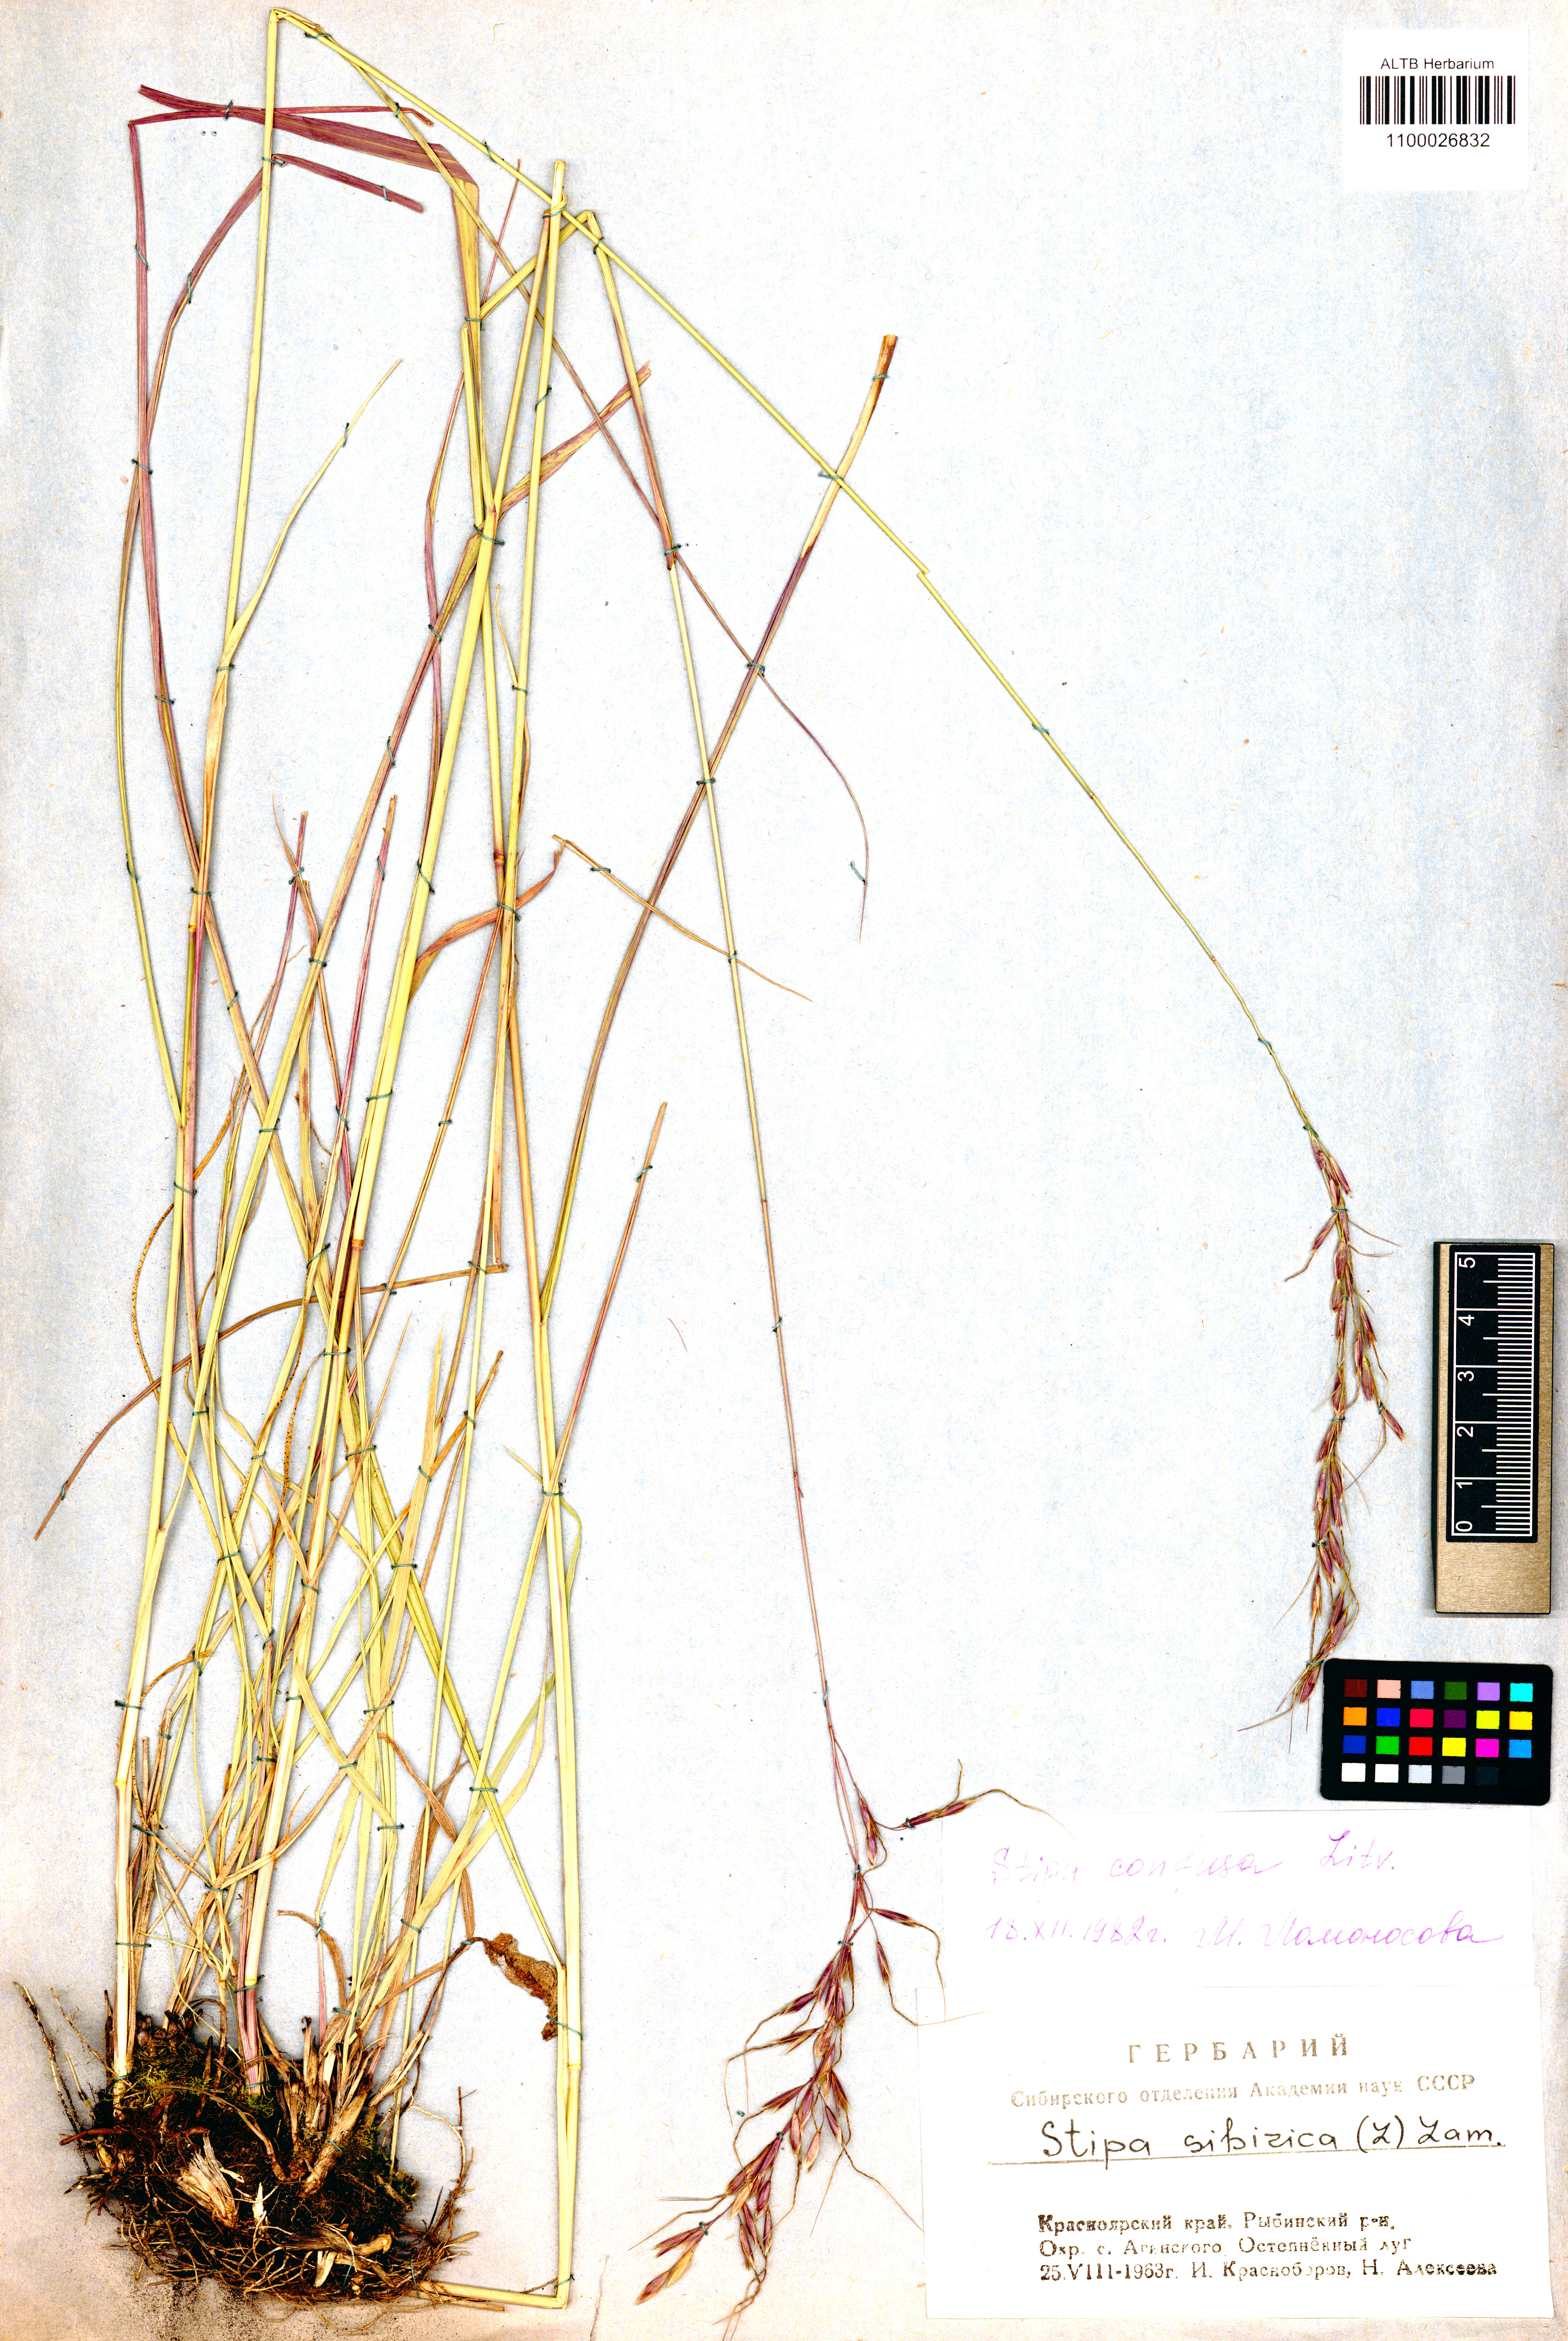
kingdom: Plantae
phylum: Tracheophyta
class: Liliopsida
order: Poales
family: Poaceae
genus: Achnatherum
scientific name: Achnatherum confusum
